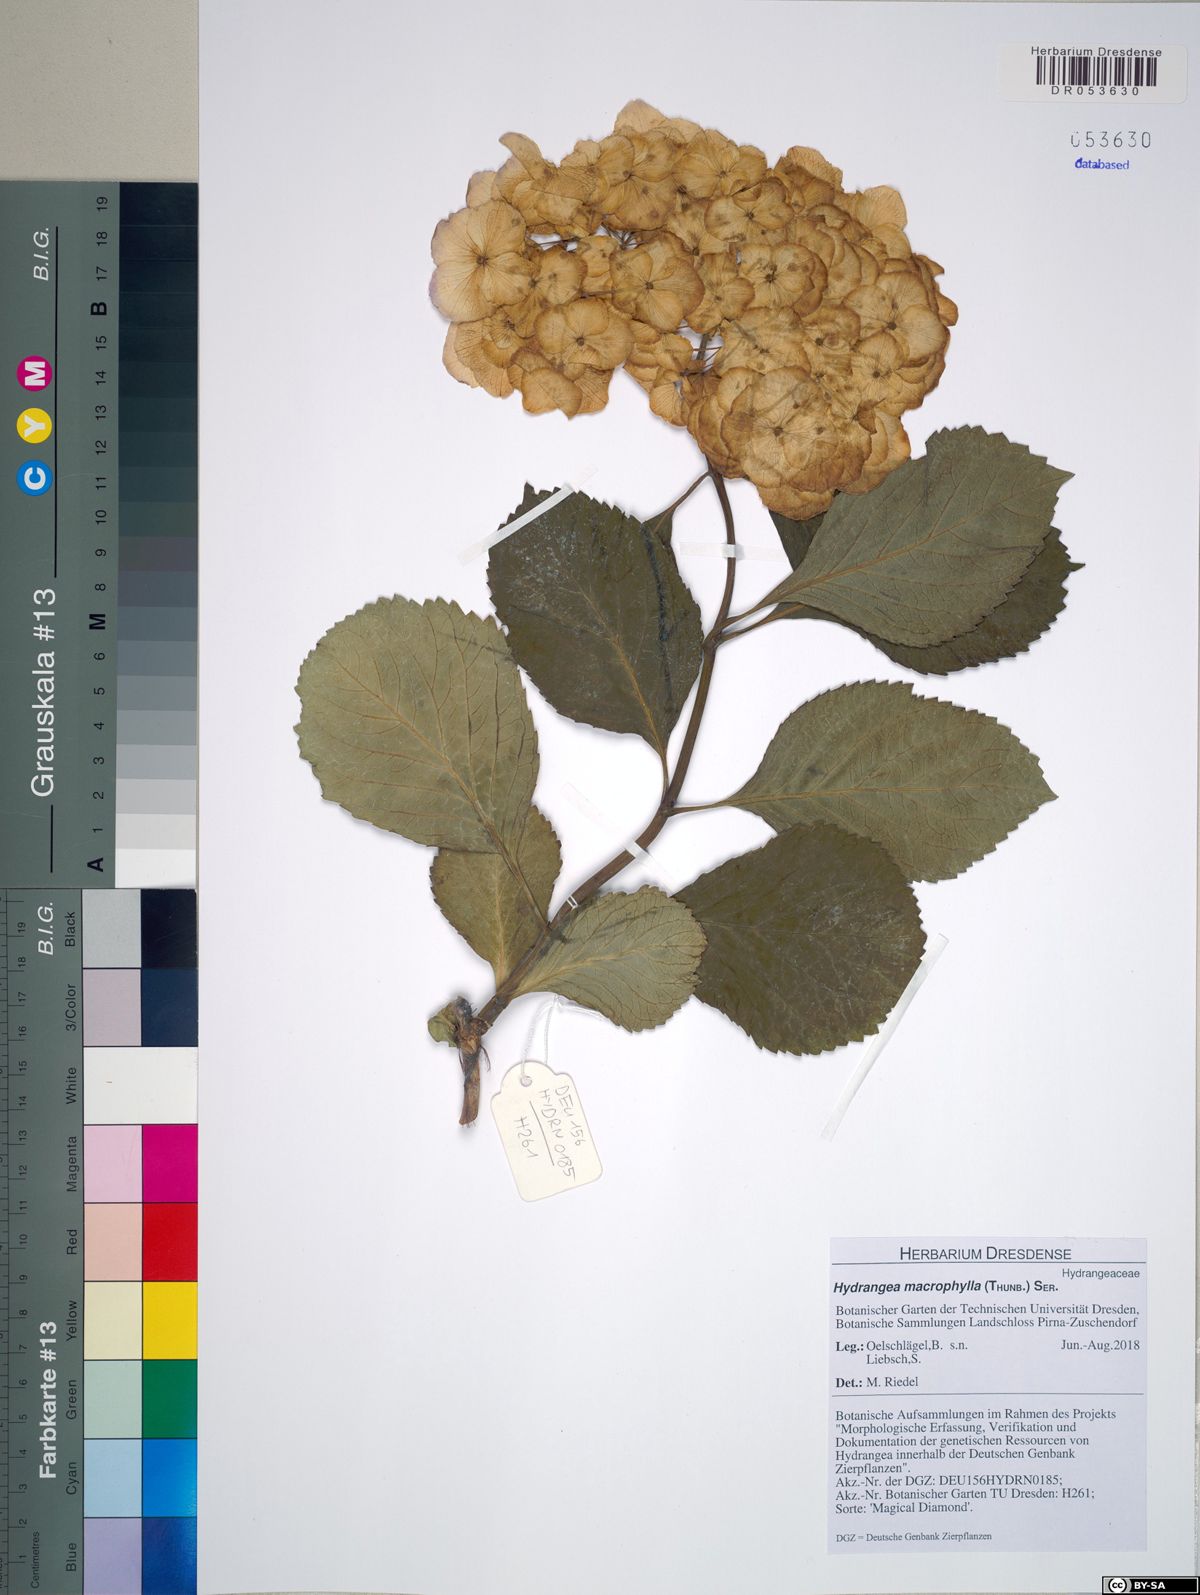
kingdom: Plantae
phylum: Tracheophyta
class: Magnoliopsida
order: Cornales
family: Hydrangeaceae
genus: Hydrangea
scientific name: Hydrangea macrophylla
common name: Hydrangea
